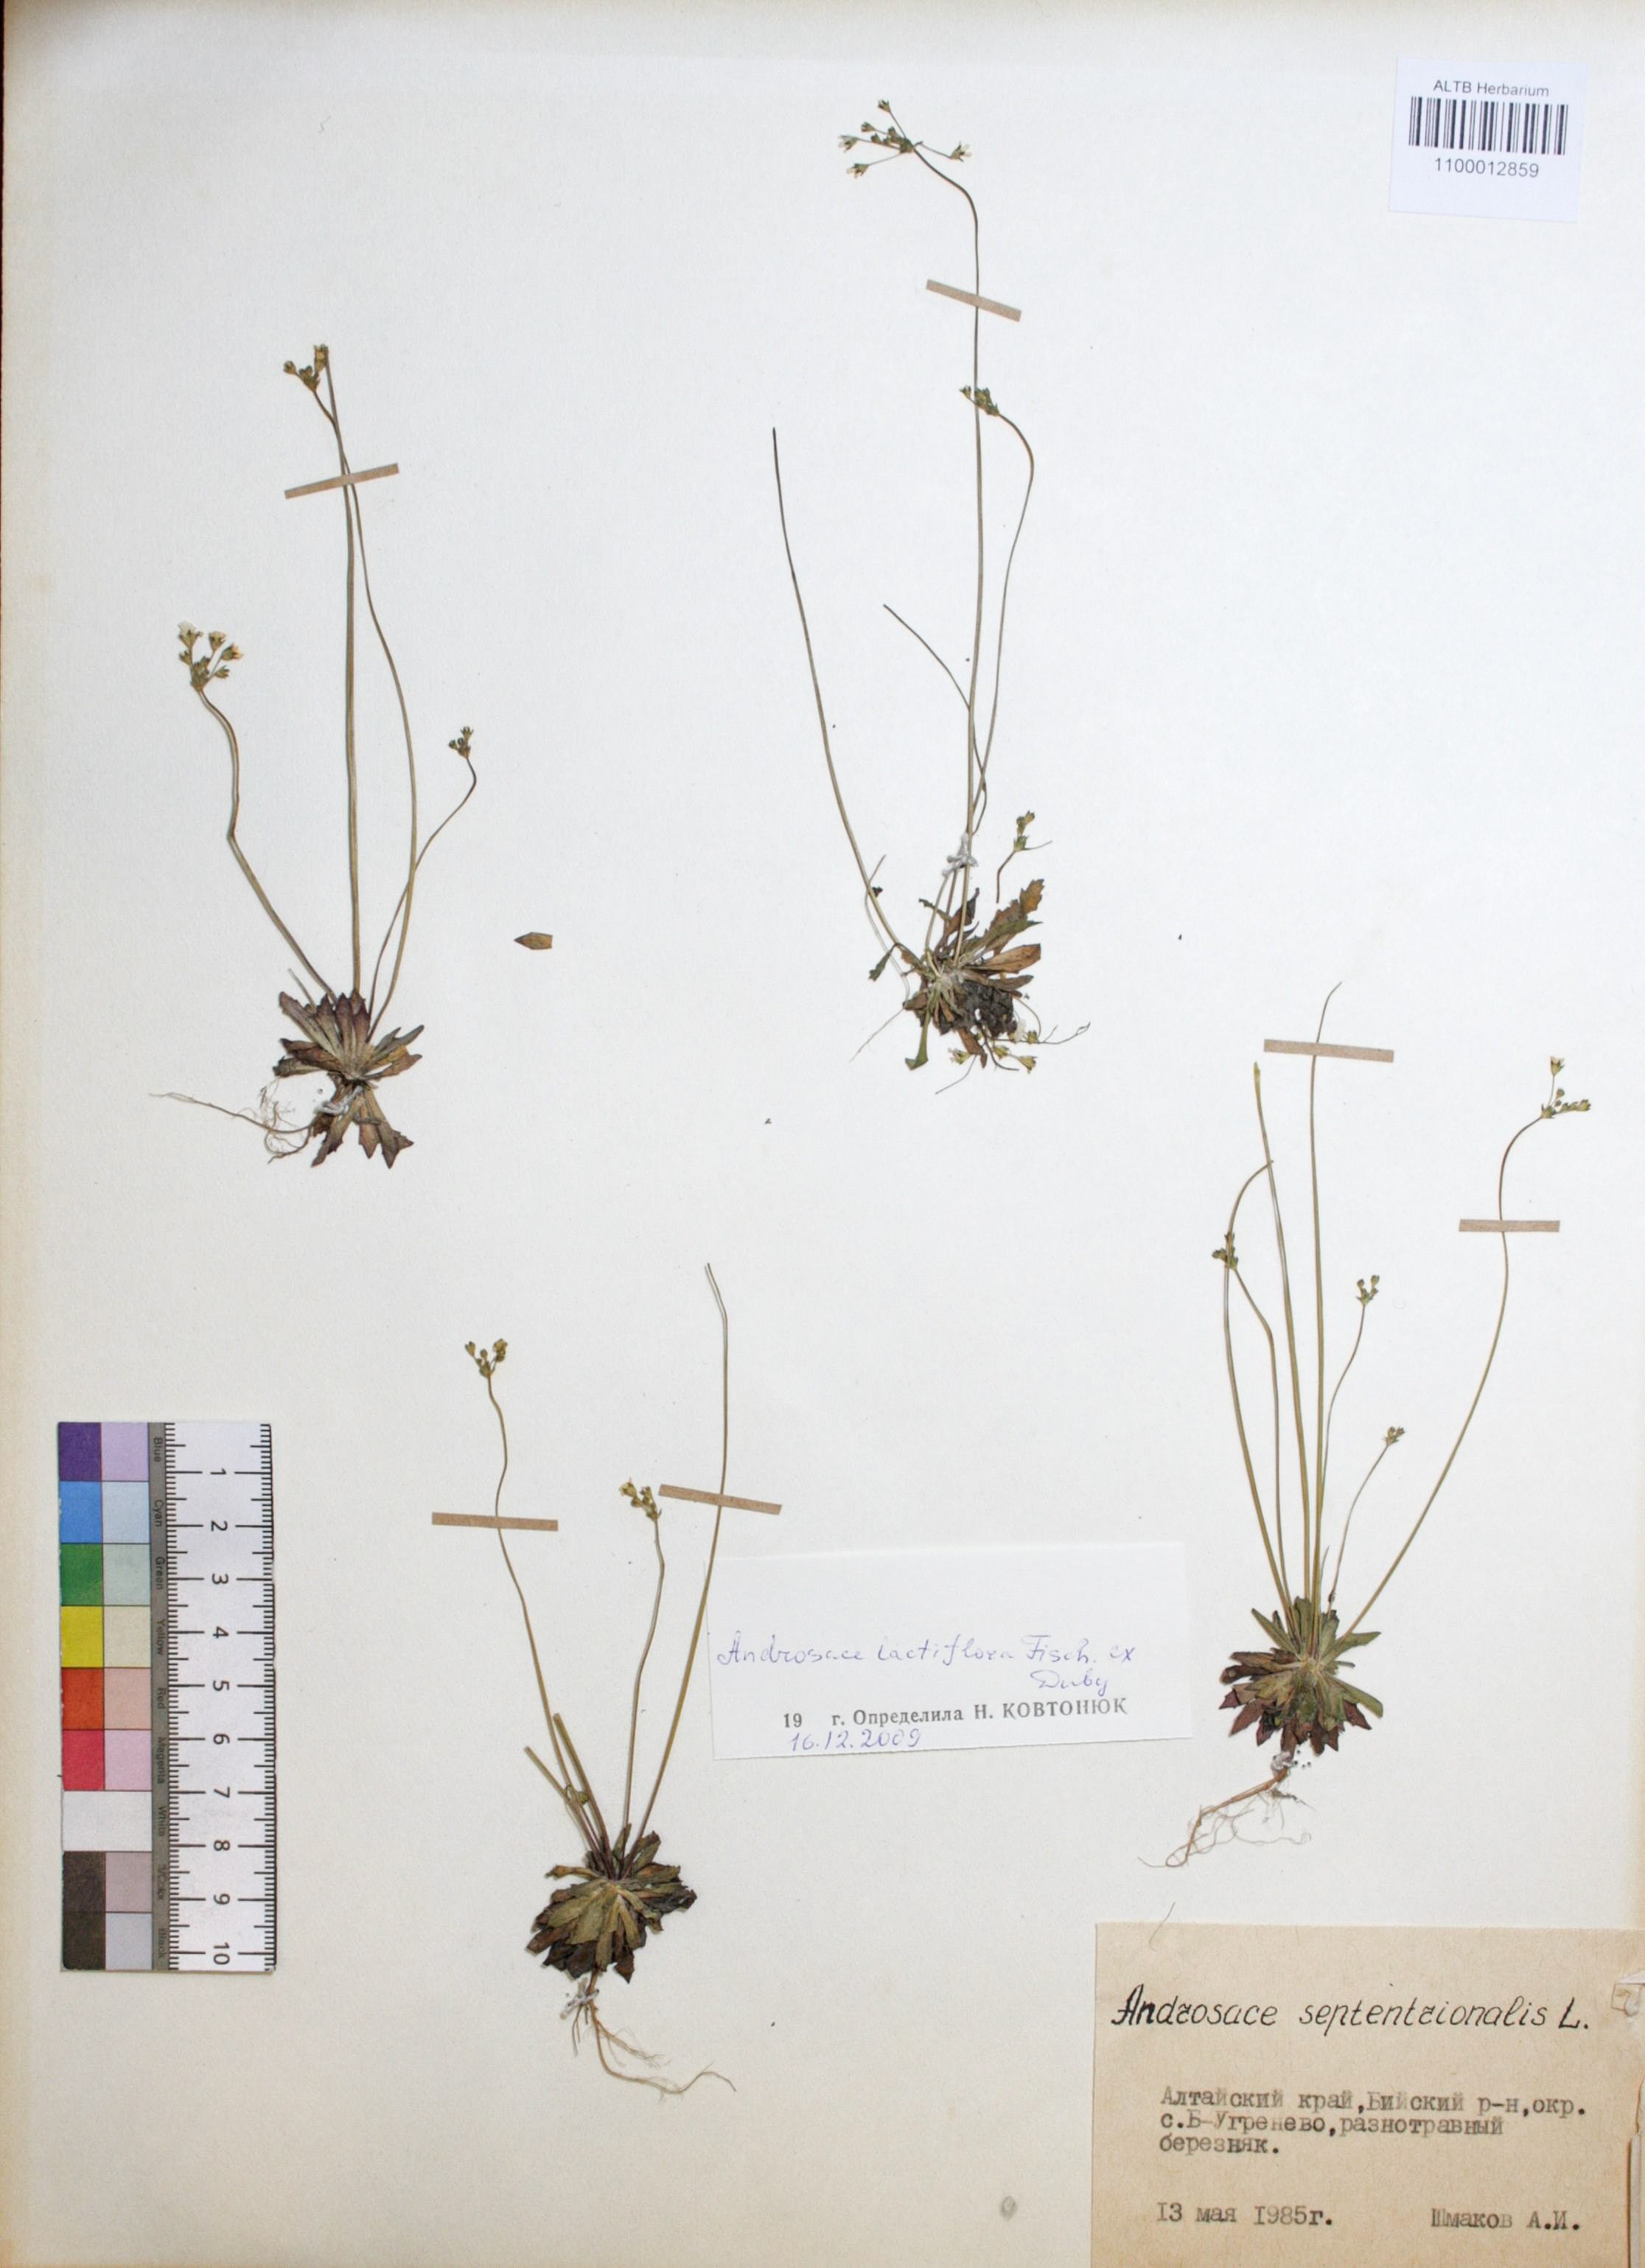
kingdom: Plantae
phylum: Tracheophyta
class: Magnoliopsida
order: Ericales
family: Primulaceae
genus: Androsace
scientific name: Androsace lactiflora
